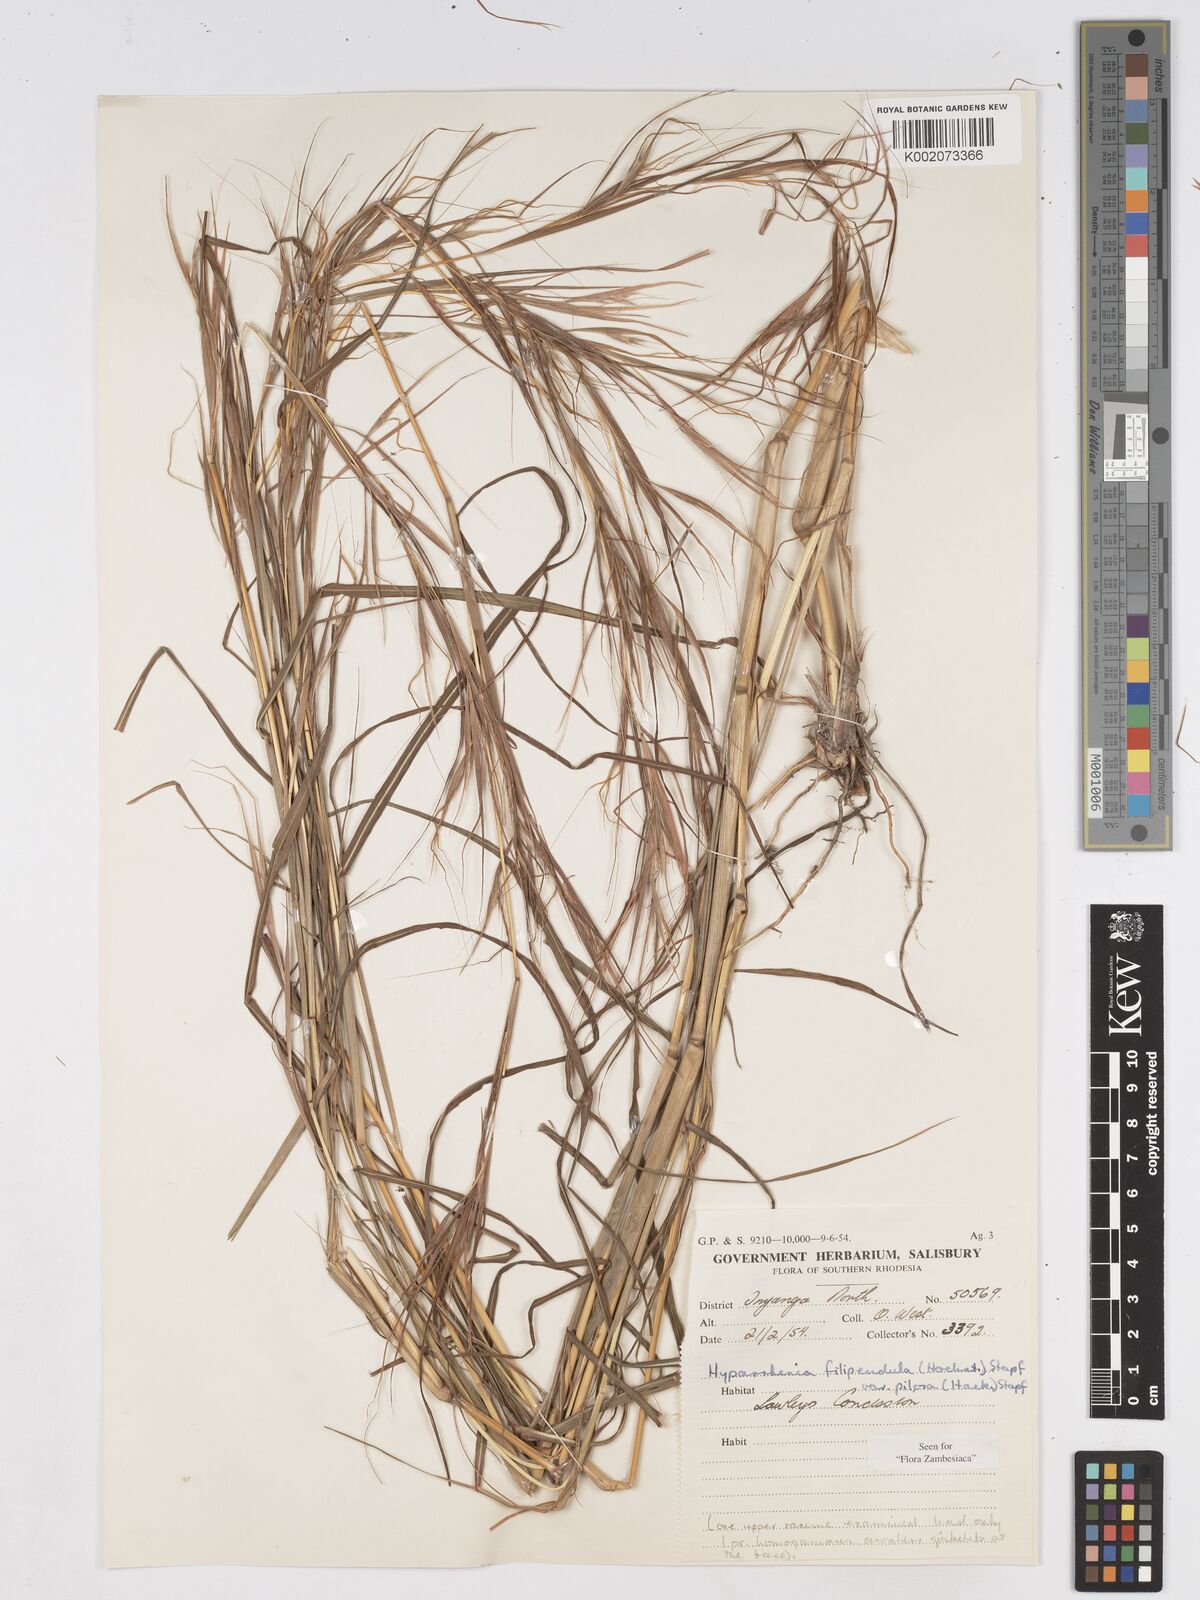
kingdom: Plantae
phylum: Tracheophyta
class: Liliopsida
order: Poales
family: Poaceae
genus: Hyparrhenia
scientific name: Hyparrhenia filipendula
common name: Tambookie grass
